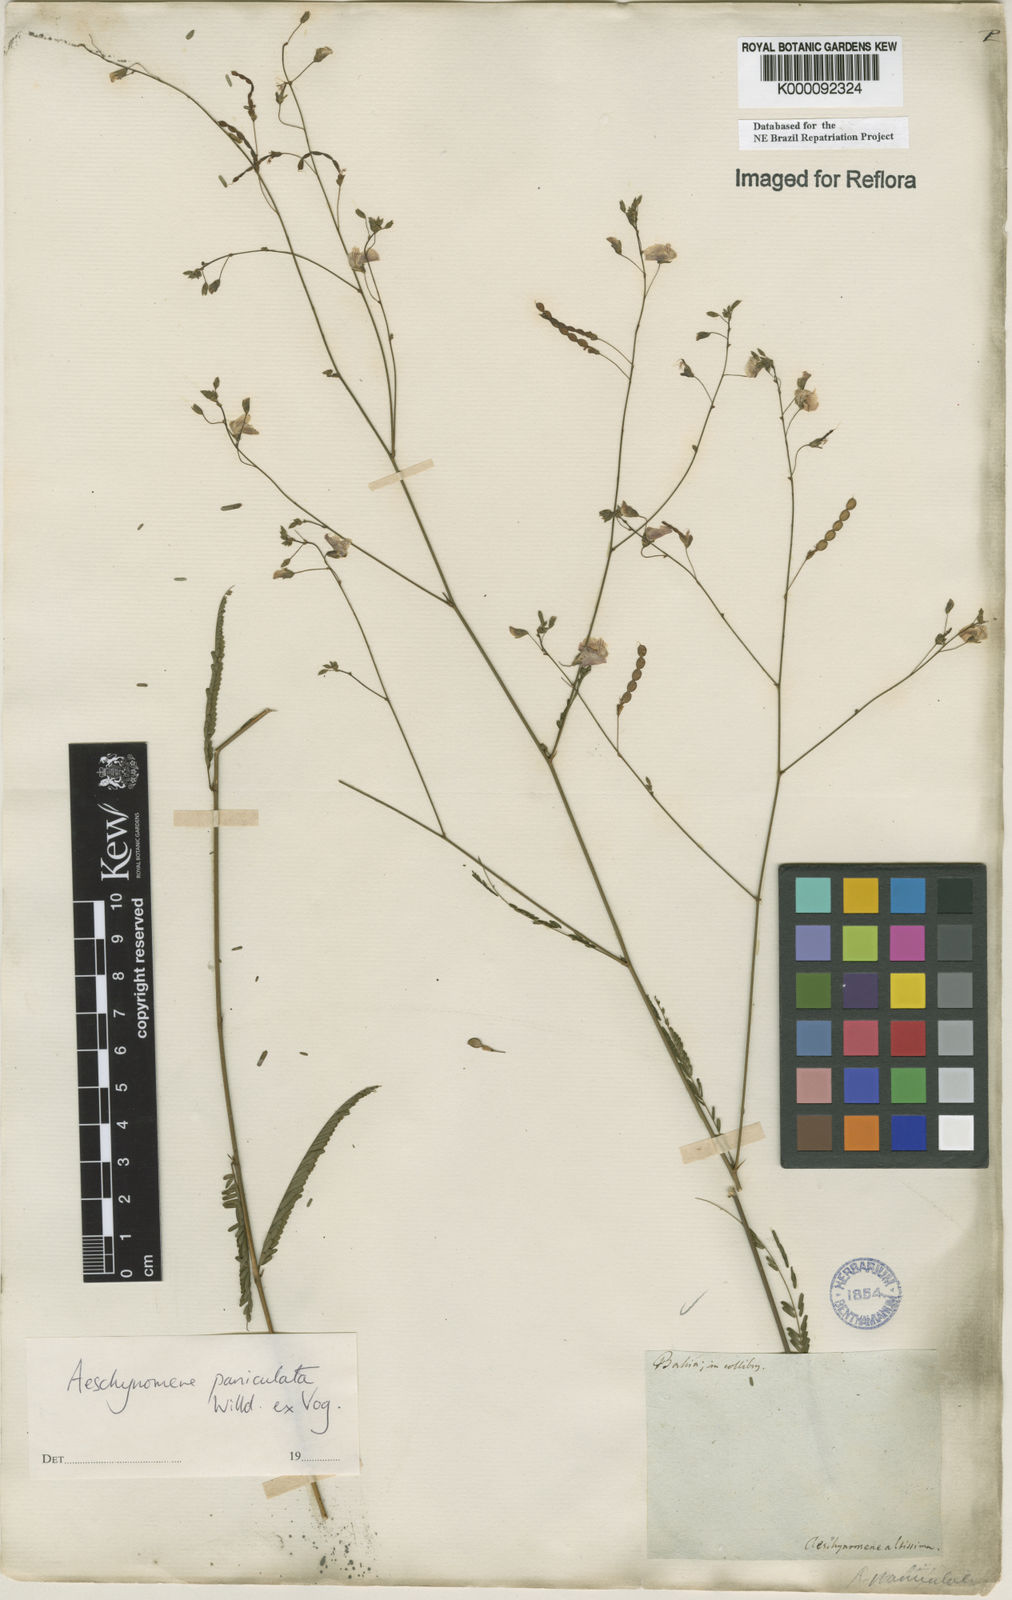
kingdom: Plantae
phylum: Tracheophyta
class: Magnoliopsida
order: Fabales
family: Fabaceae
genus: Ctenodon
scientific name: Ctenodon paniculatus
